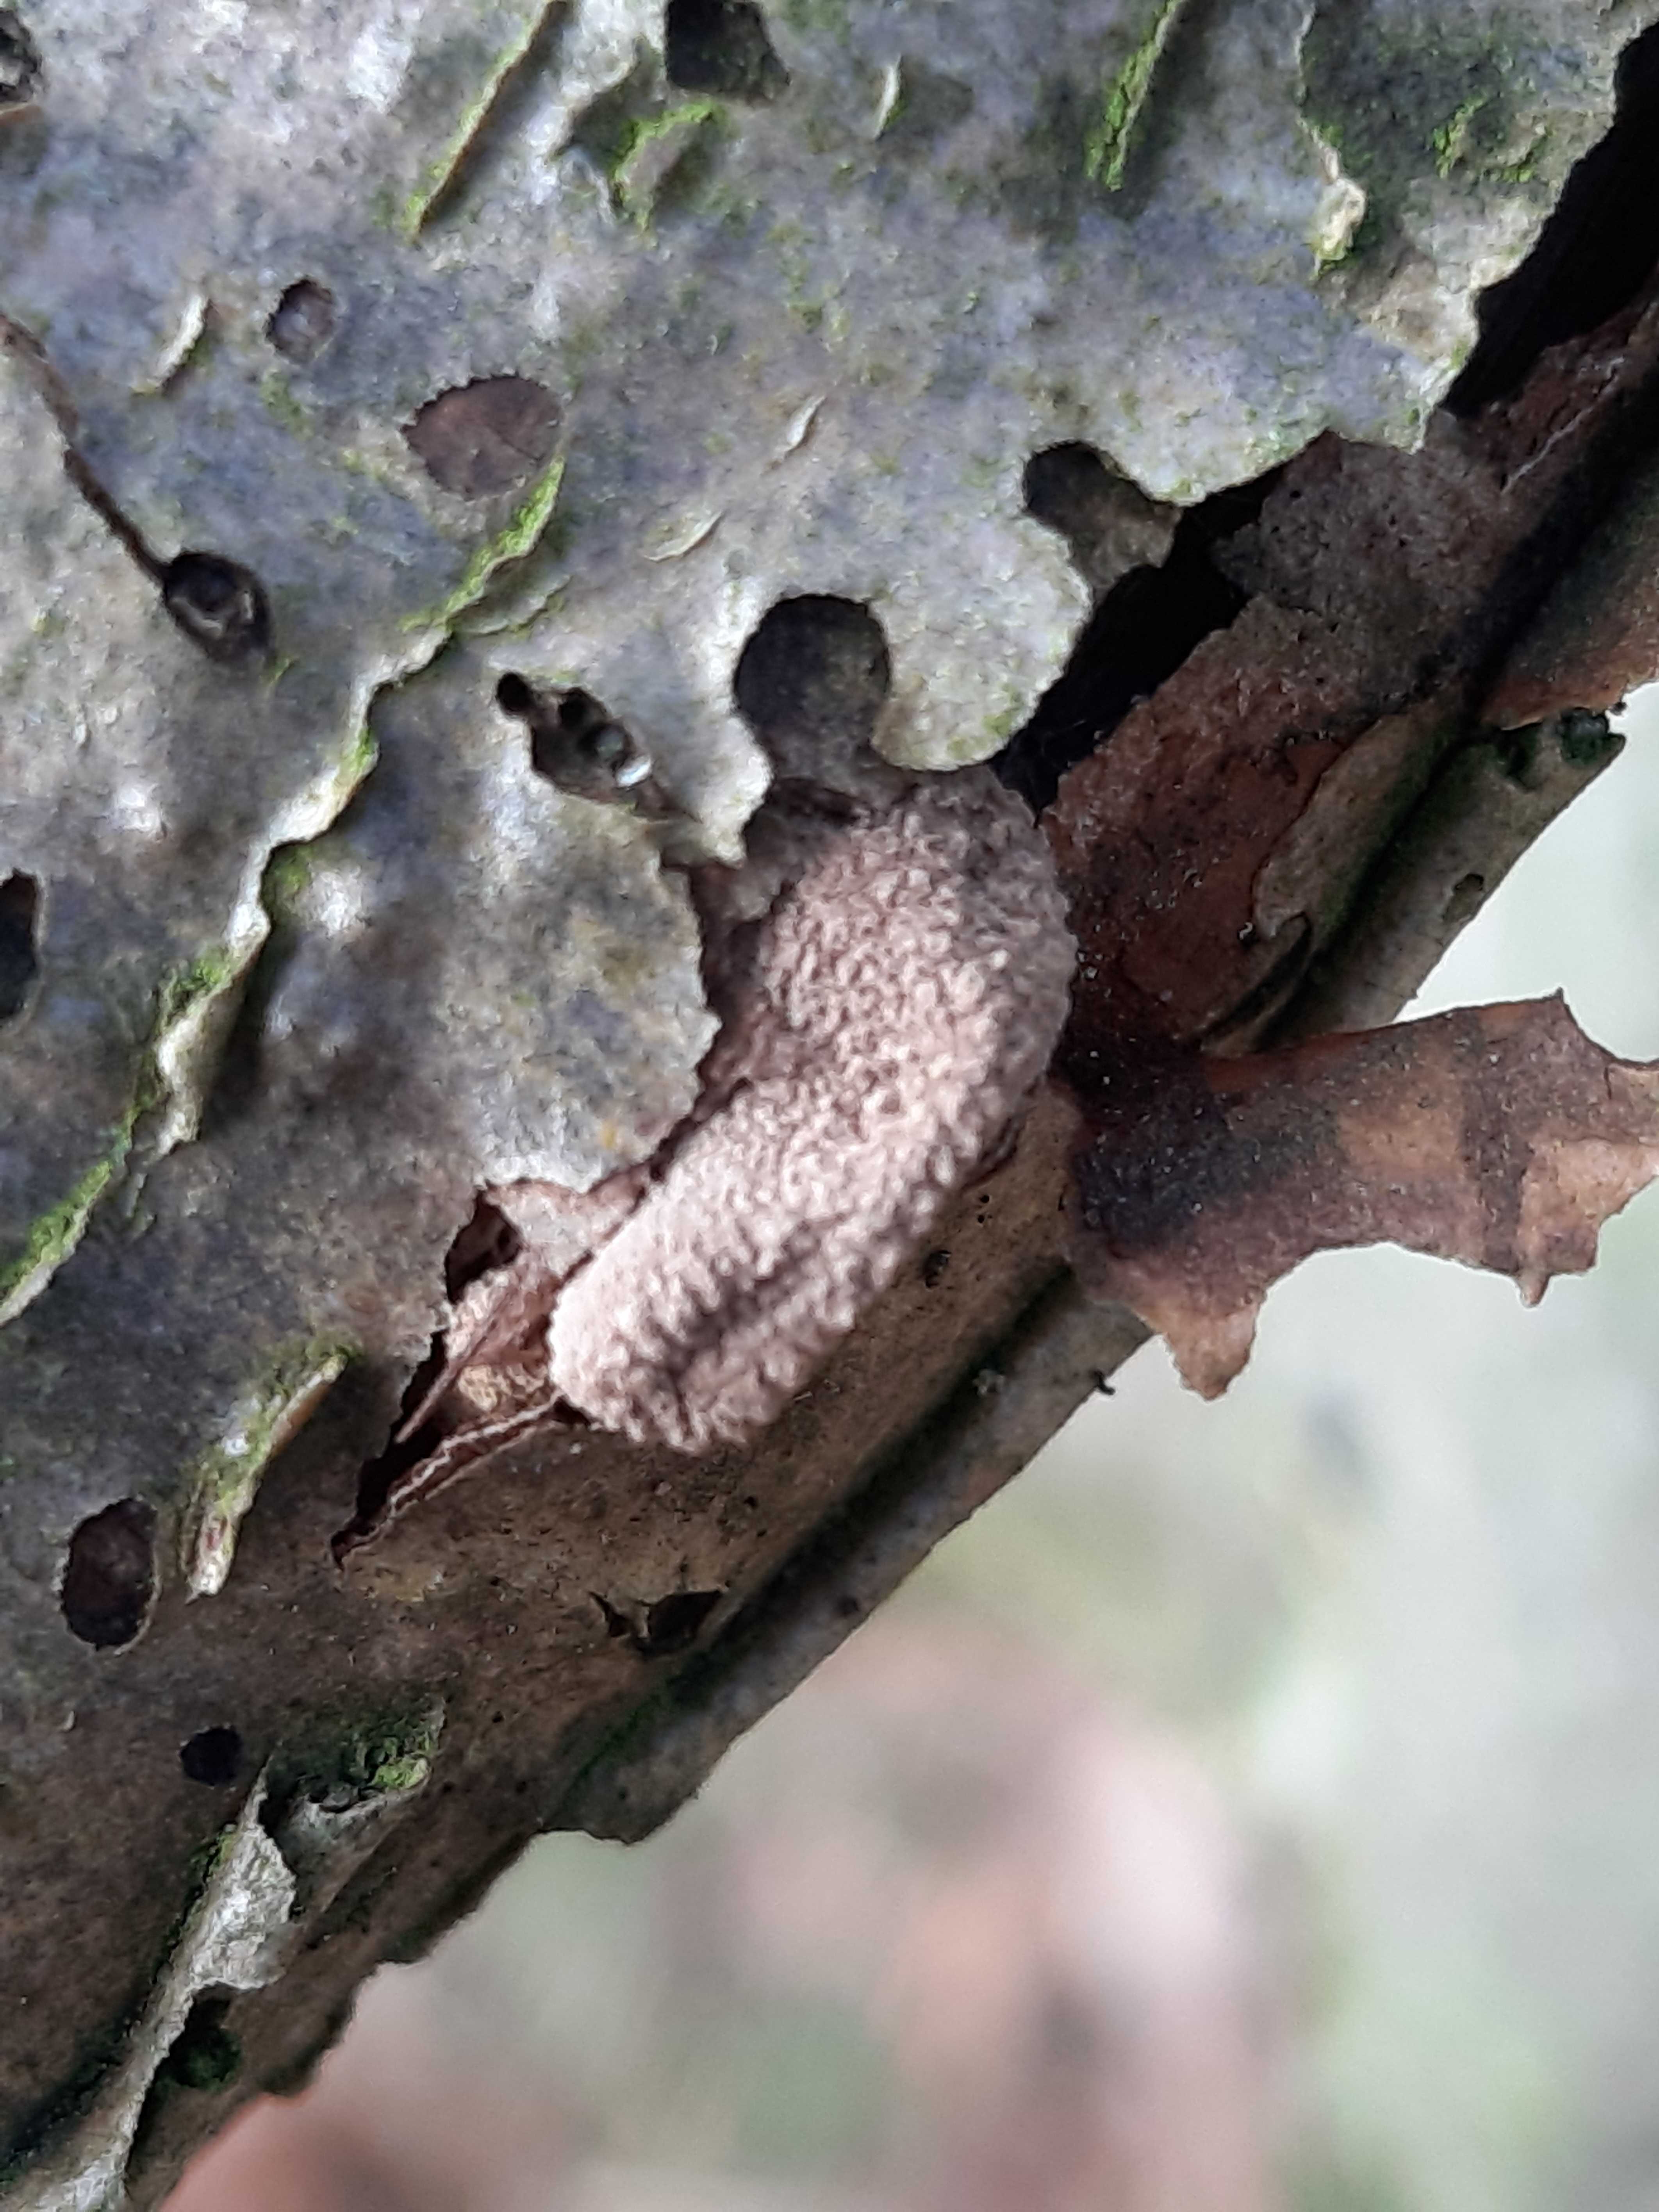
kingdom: Fungi
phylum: Ascomycota
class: Leotiomycetes
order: Helotiales
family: Cenangiaceae
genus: Encoelia
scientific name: Encoelia furfuracea
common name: hassel-læderskive
